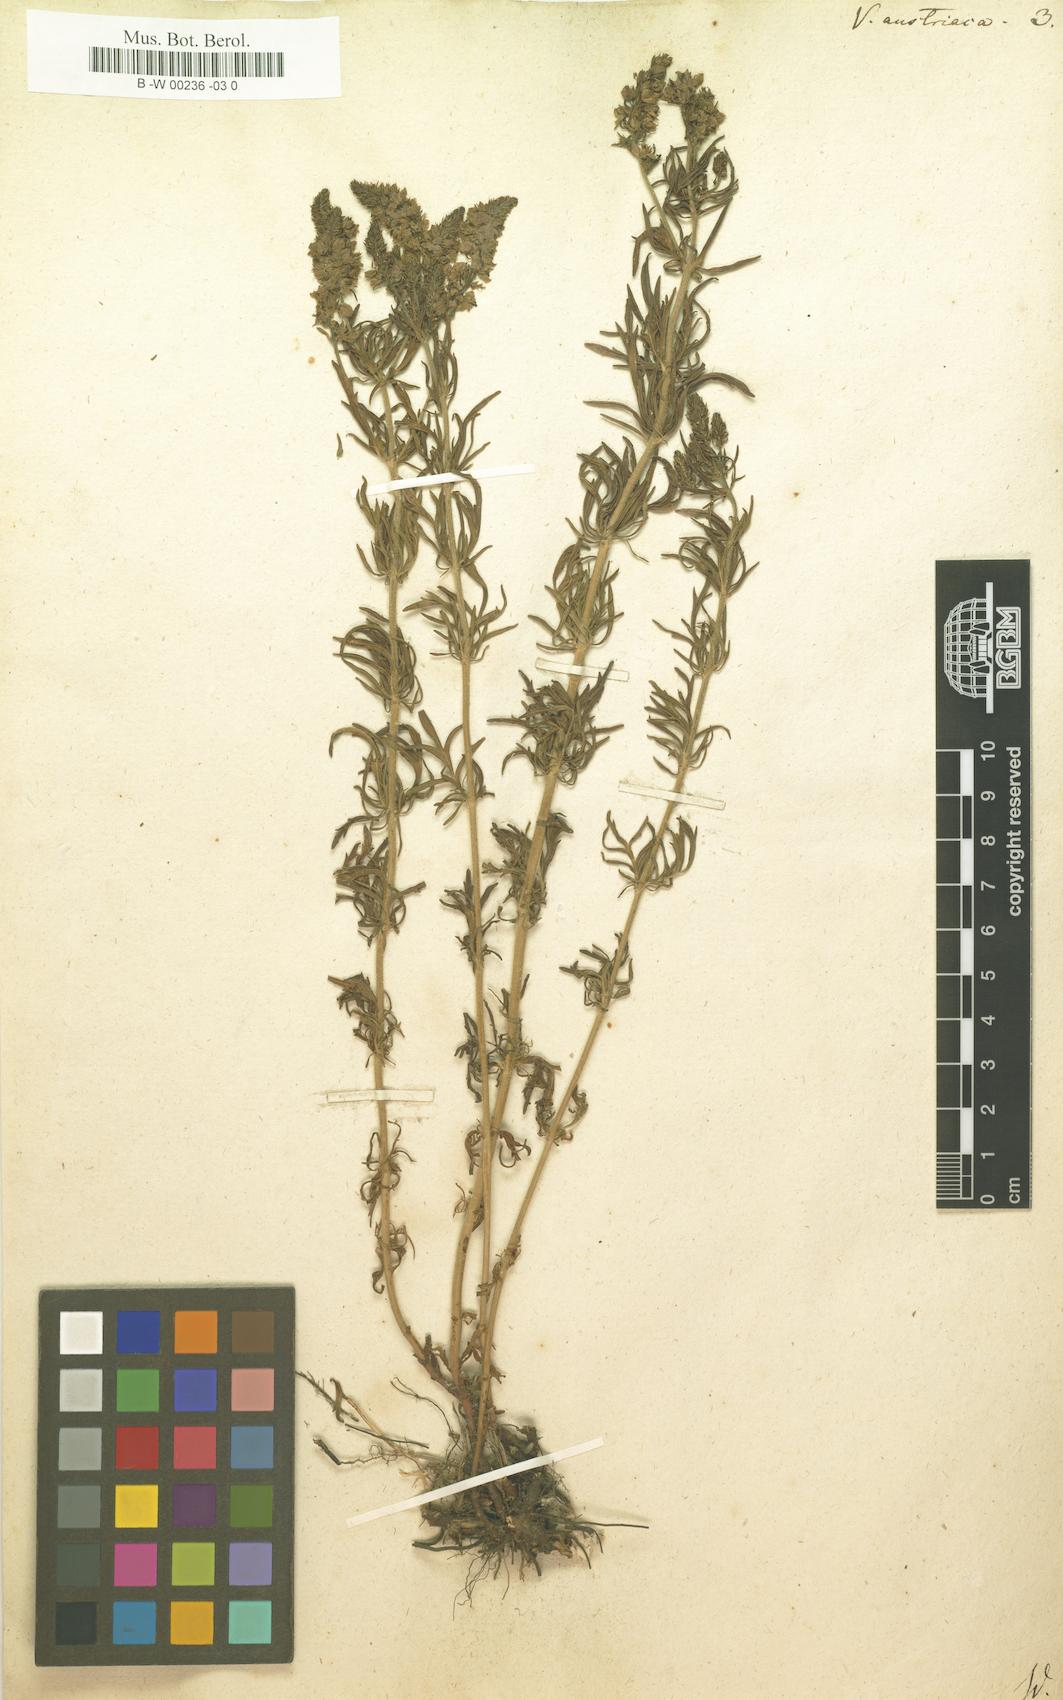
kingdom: Plantae
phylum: Tracheophyta
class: Magnoliopsida
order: Lamiales
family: Plantaginaceae
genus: Veronica
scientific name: Veronica austriaca
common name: Large speedwell
